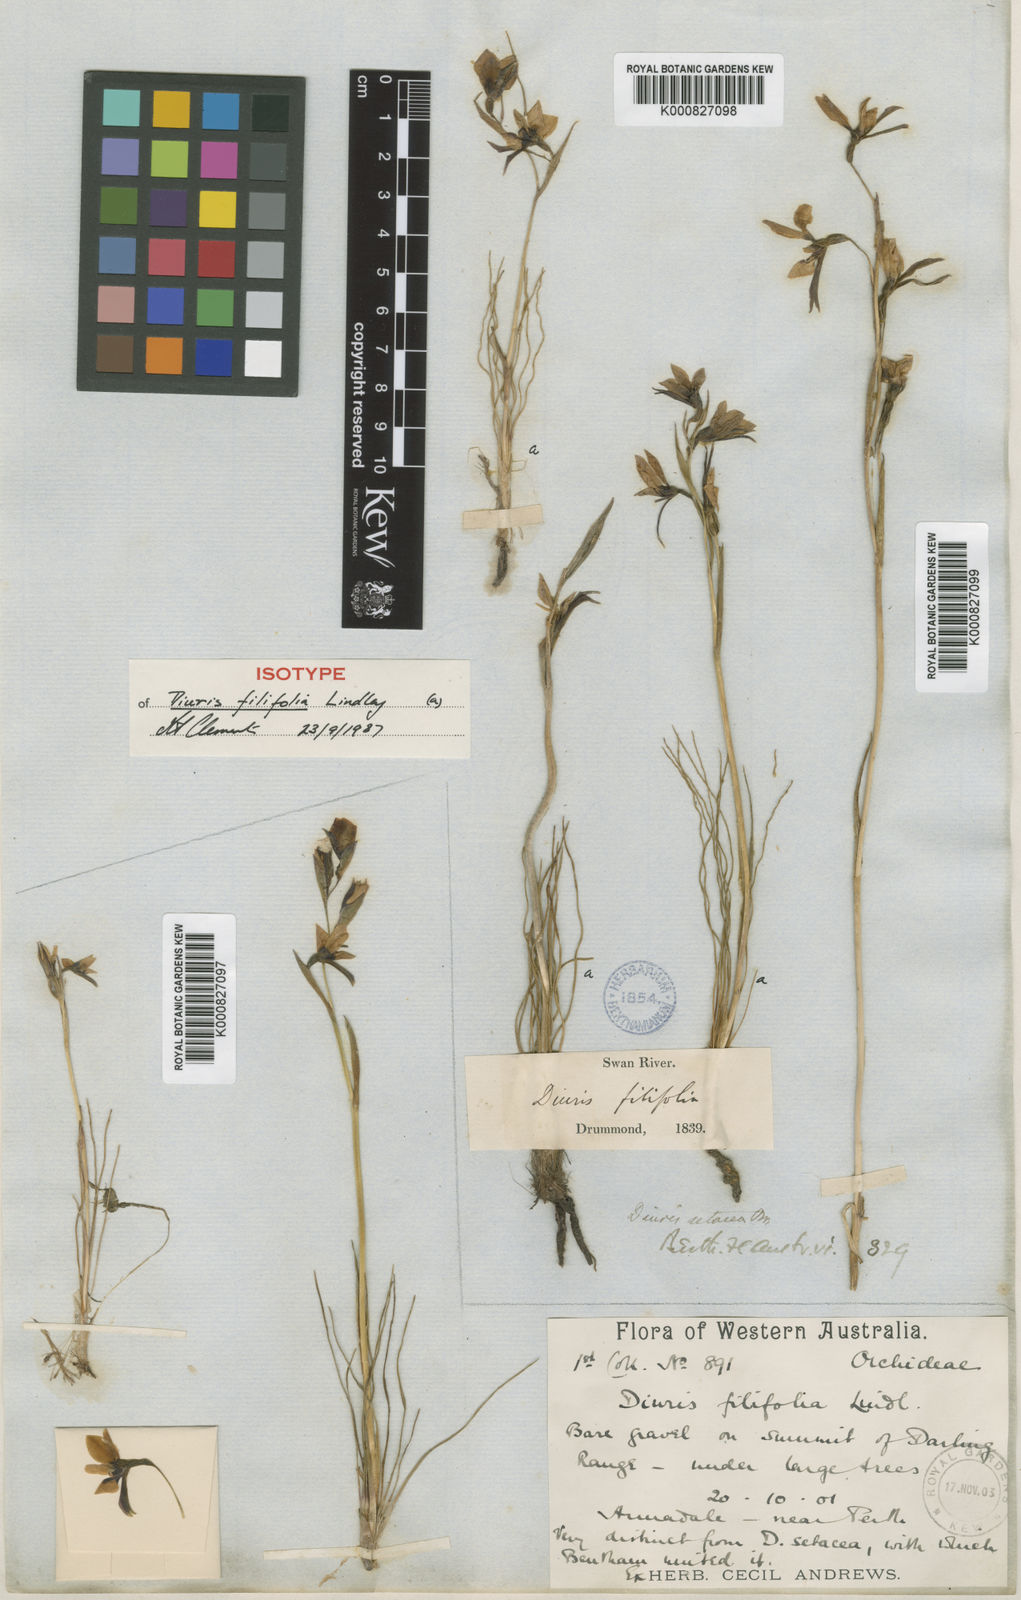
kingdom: Plantae
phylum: Tracheophyta
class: Liliopsida
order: Asparagales
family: Orchidaceae
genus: Diuris
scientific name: Diuris setacea
